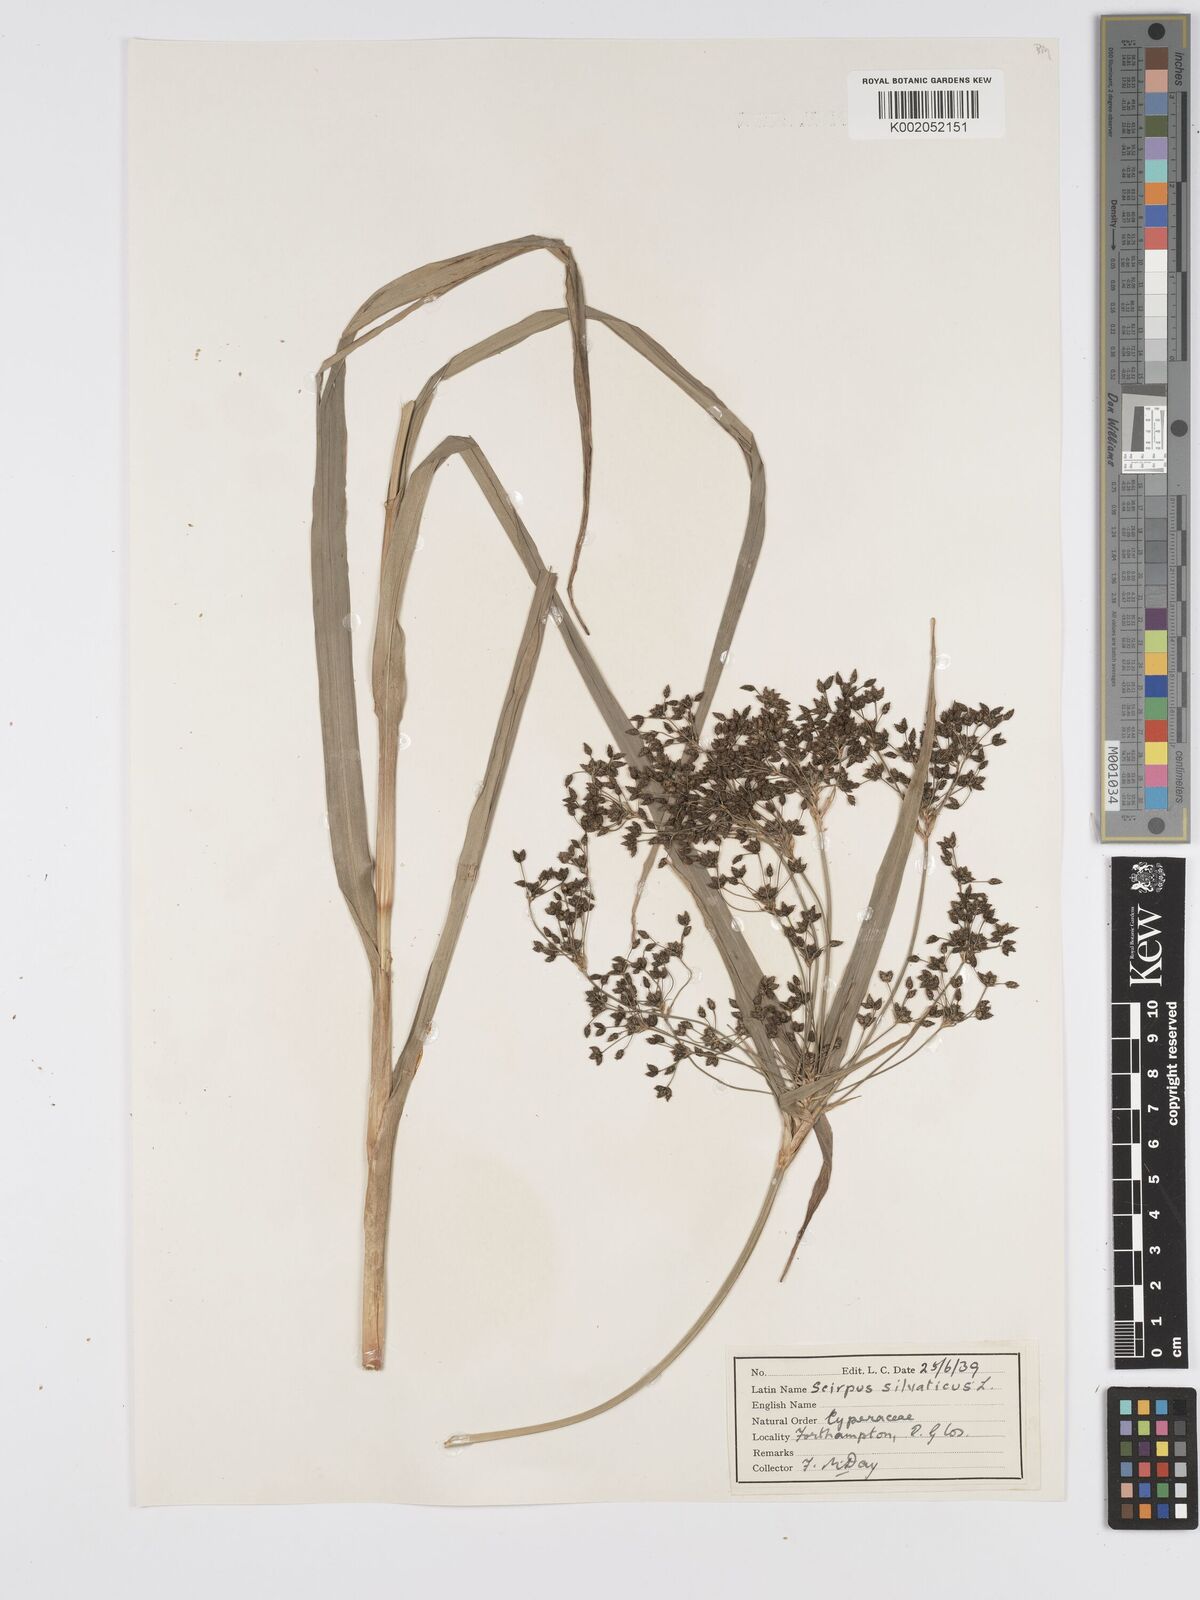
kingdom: Plantae
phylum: Tracheophyta
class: Liliopsida
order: Poales
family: Cyperaceae
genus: Scirpus
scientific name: Scirpus sylvaticus
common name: Wood club-rush
